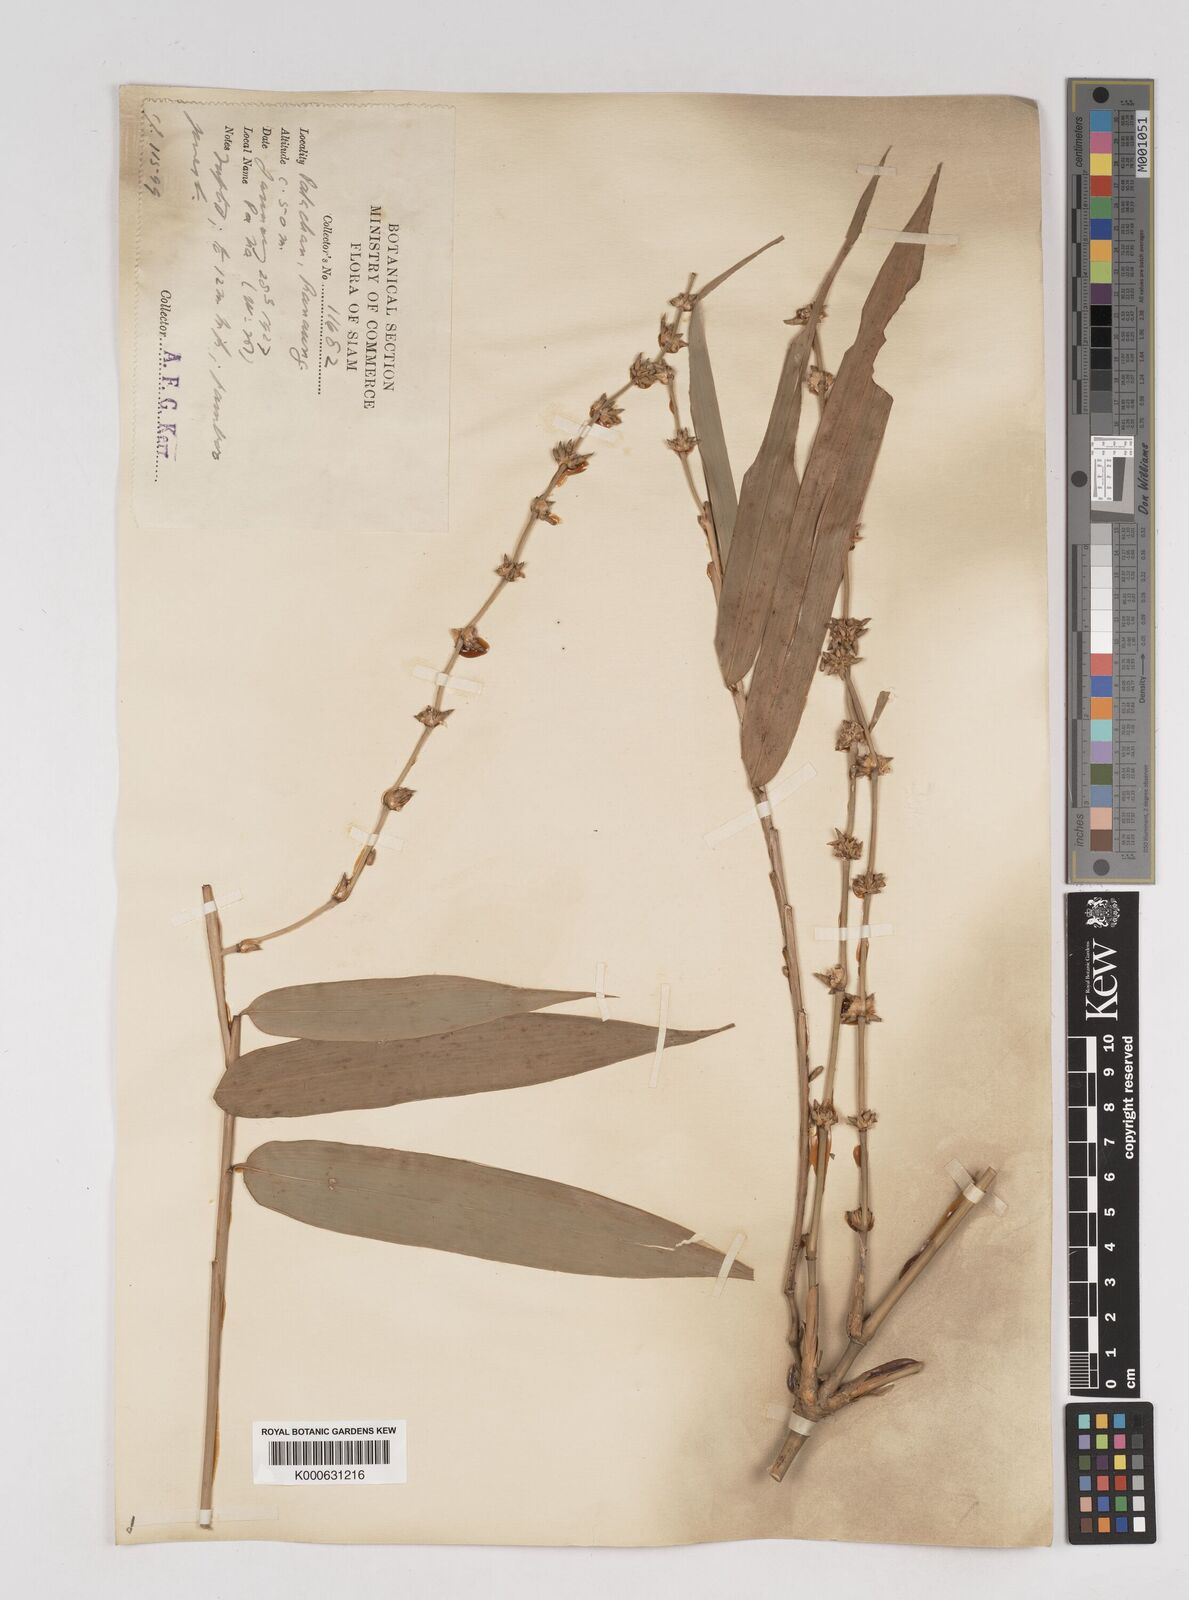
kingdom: Plantae
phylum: Tracheophyta
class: Liliopsida
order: Poales
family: Poaceae
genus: Gigantochloa
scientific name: Gigantochloa
